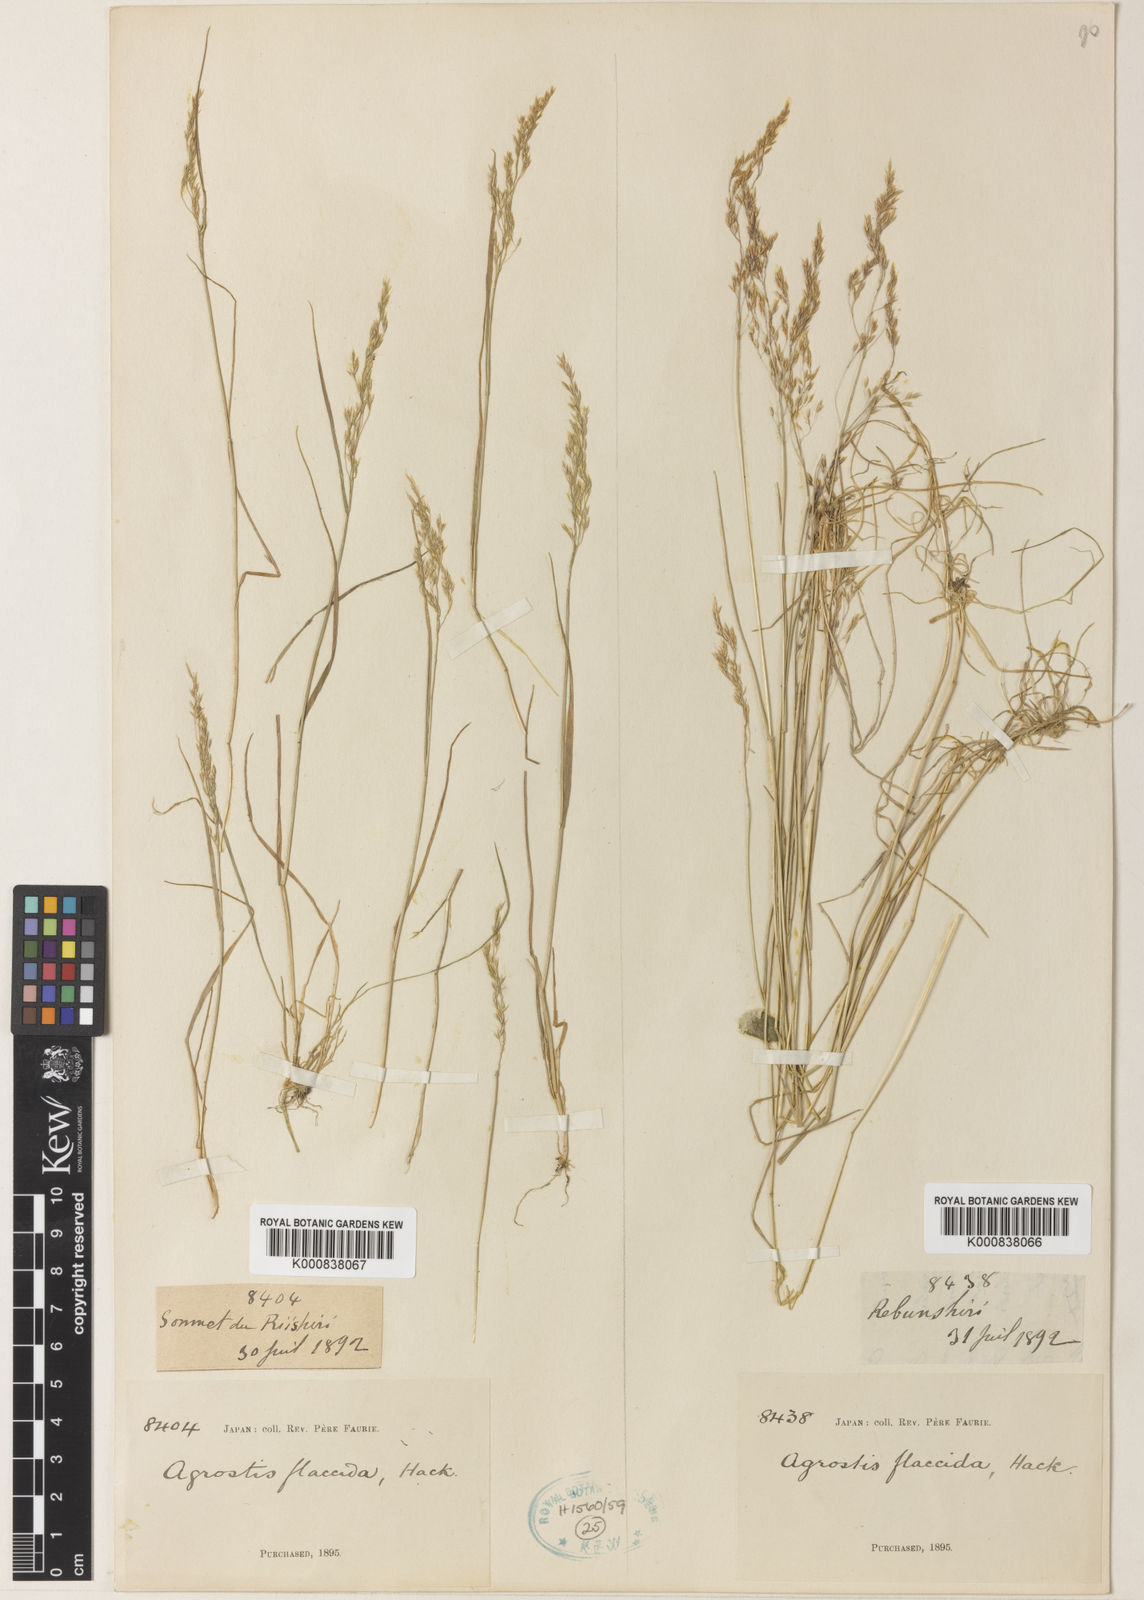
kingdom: Plantae
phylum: Tracheophyta
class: Liliopsida
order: Poales
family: Poaceae
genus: Agrostis
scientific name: Agrostis flaccida
